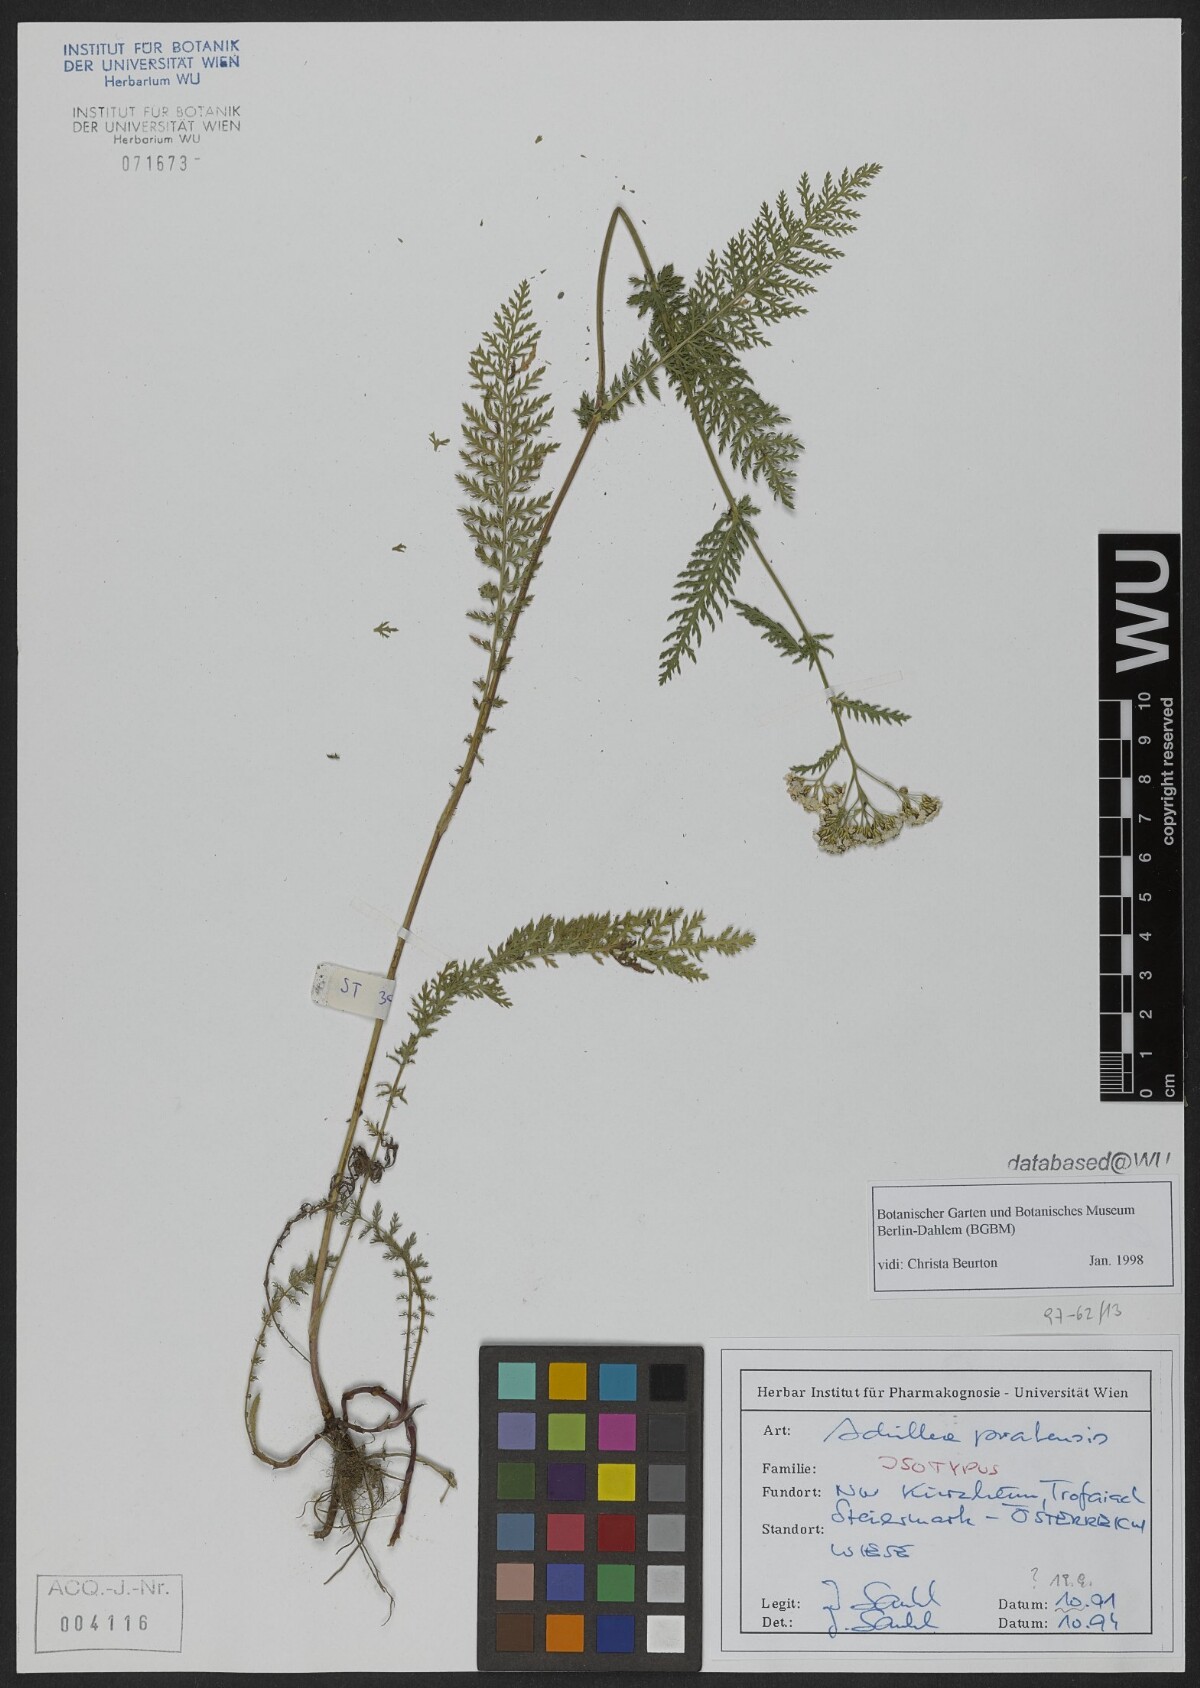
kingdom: Plantae
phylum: Tracheophyta
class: Magnoliopsida
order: Asterales
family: Asteraceae
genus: Achillea
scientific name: Achillea pratensis
